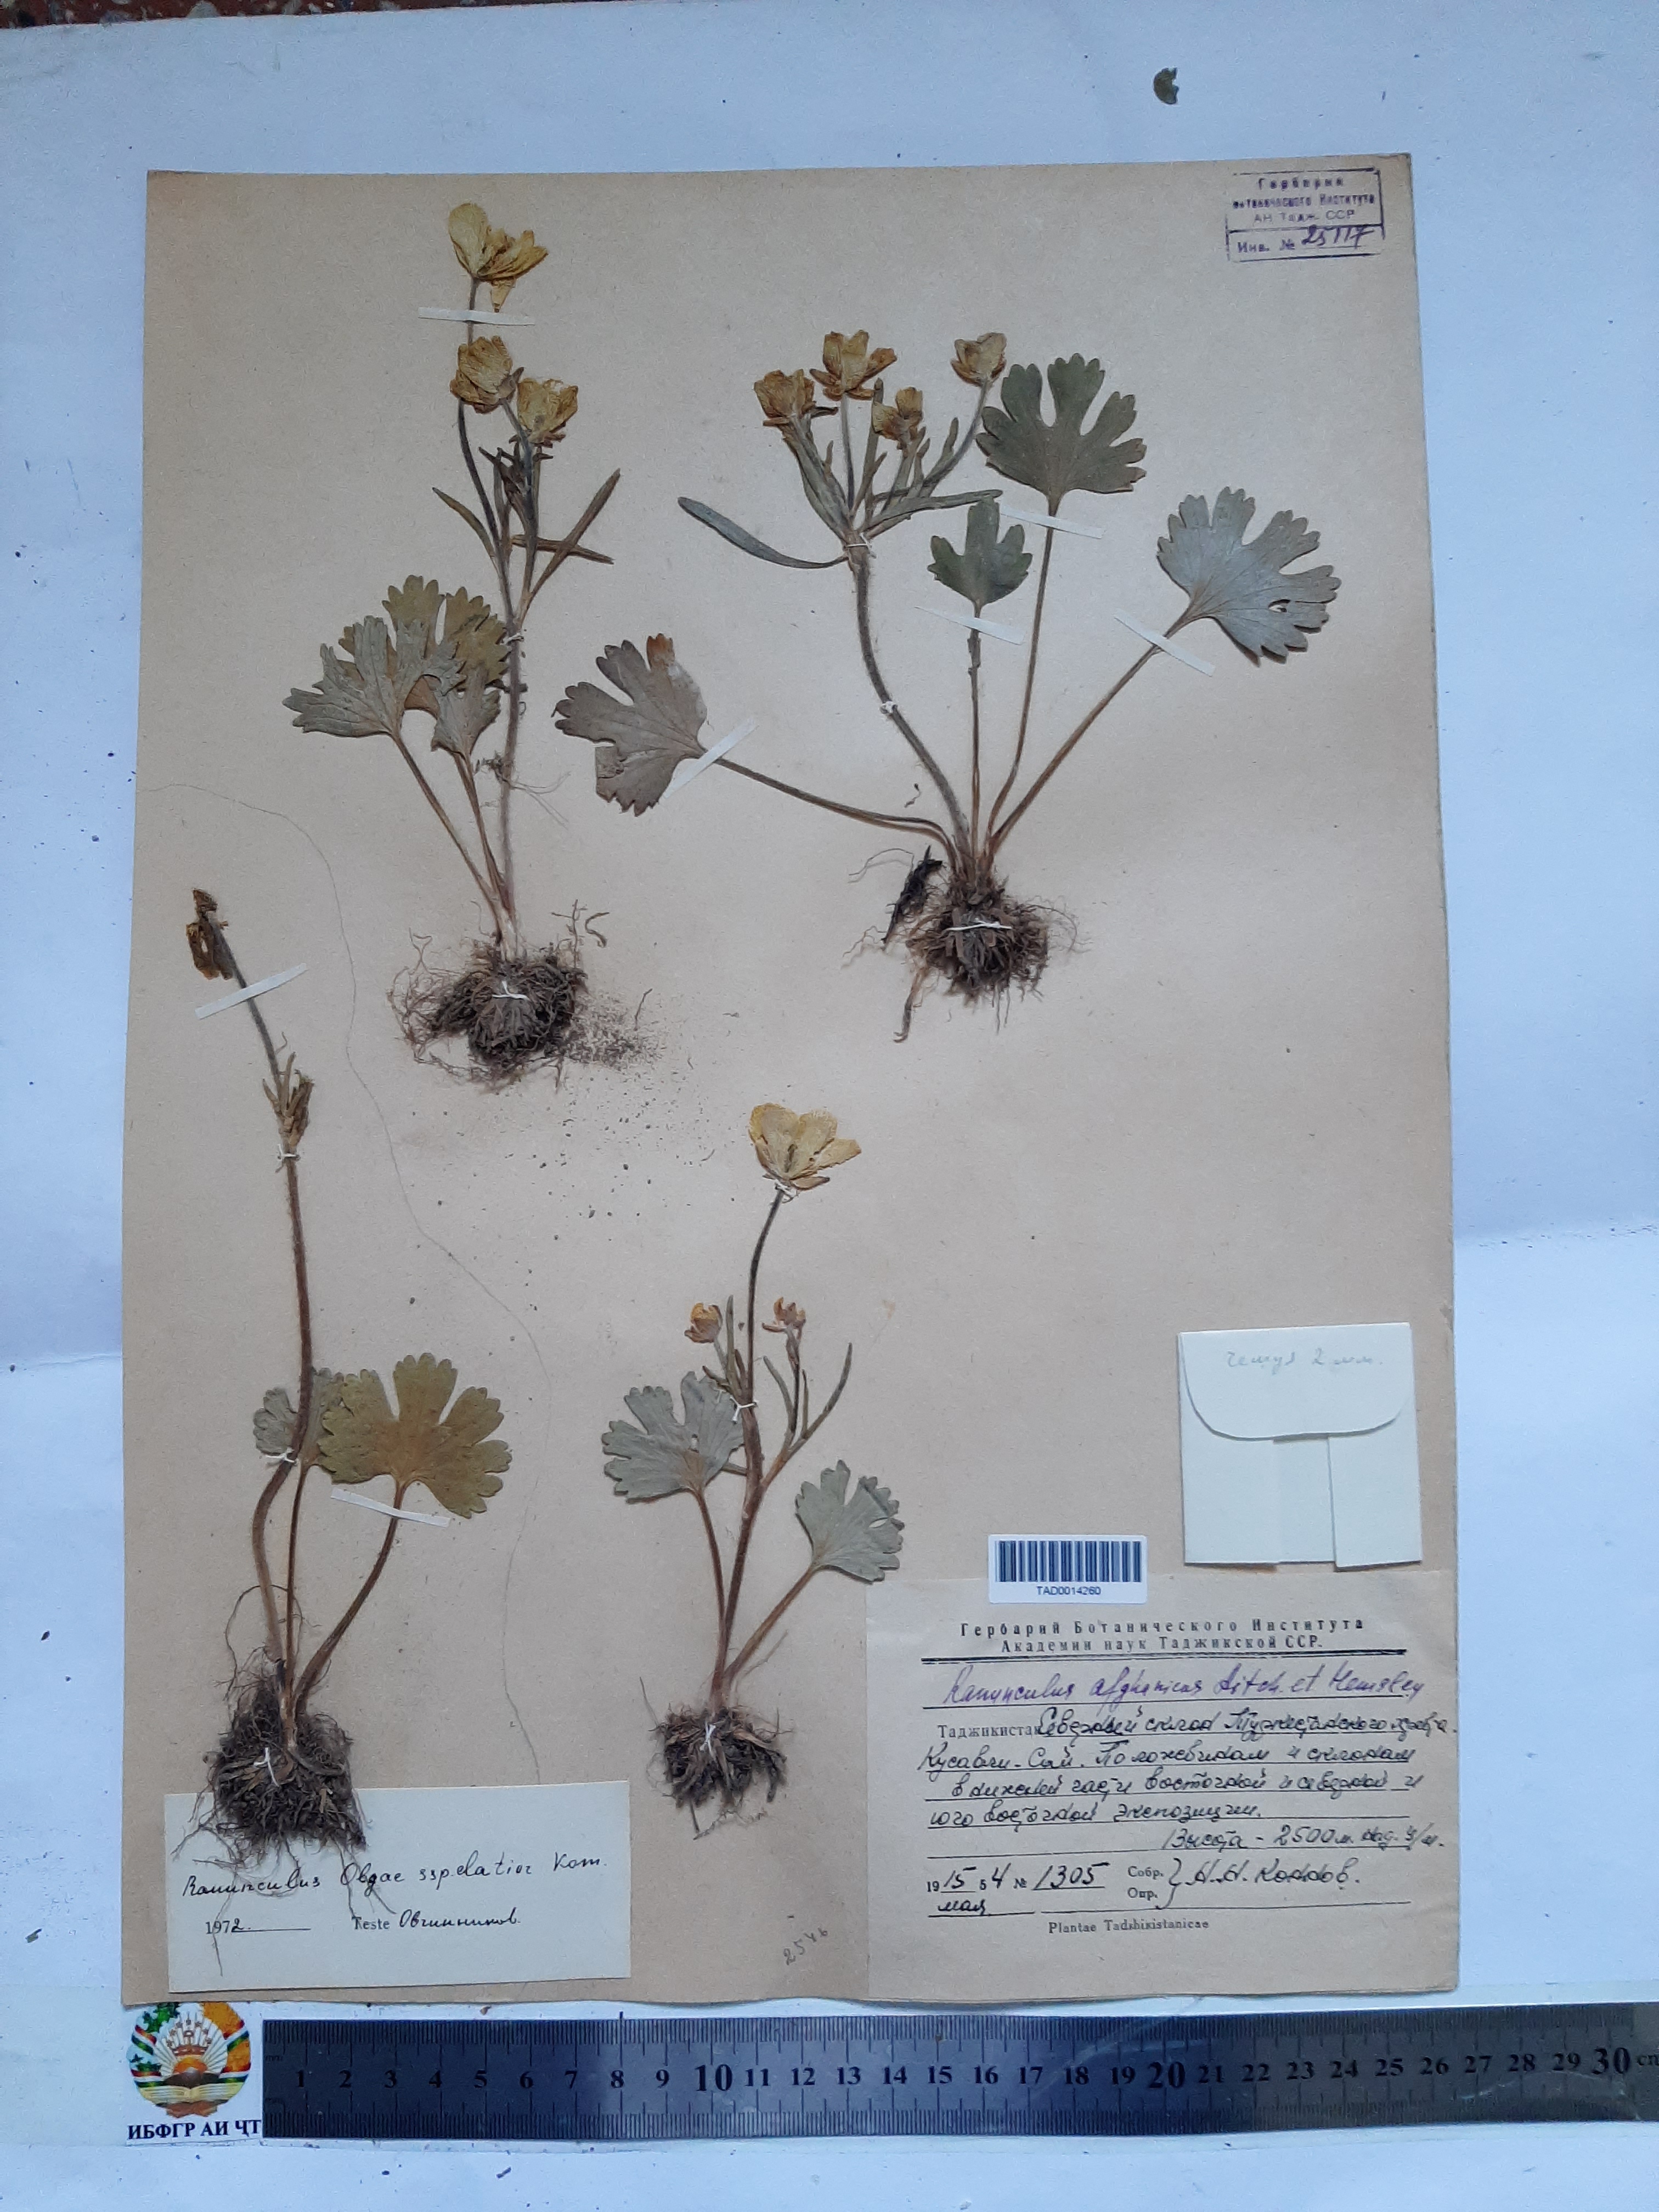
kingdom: Plantae
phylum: Tracheophyta
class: Magnoliopsida
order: Ranunculales
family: Ranunculaceae
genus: Ranunculus
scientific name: Ranunculus afghanicus
